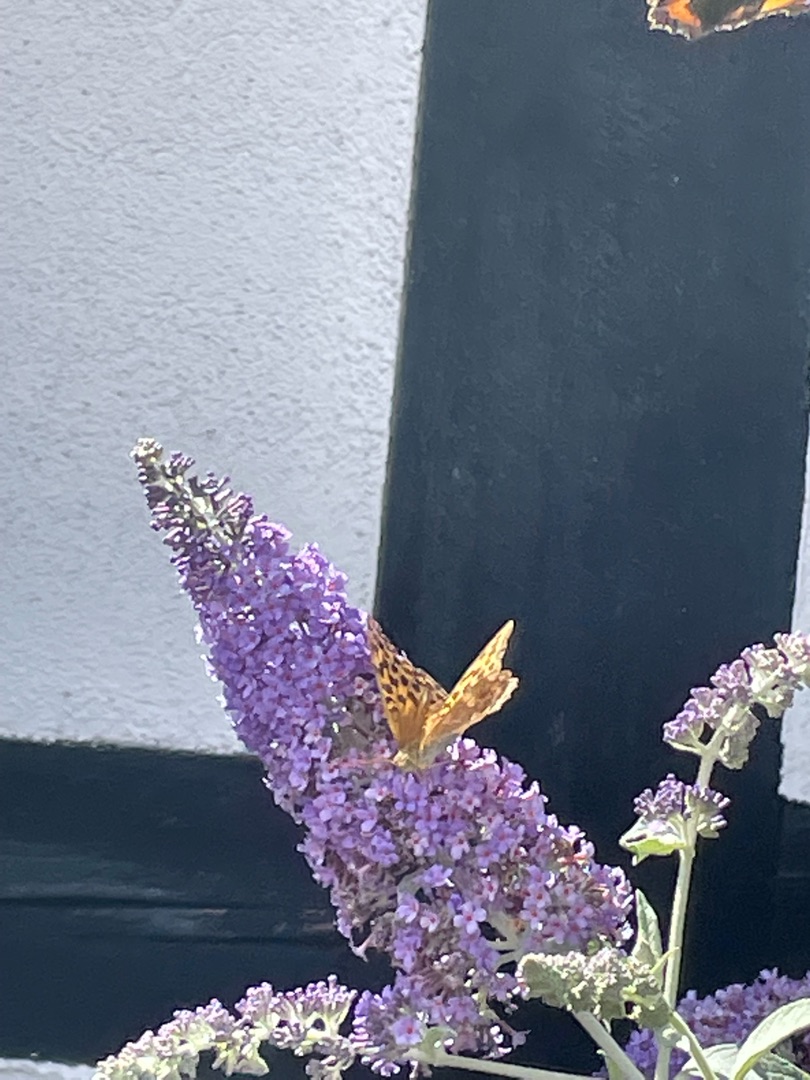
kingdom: Animalia
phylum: Arthropoda
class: Insecta
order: Lepidoptera
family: Nymphalidae
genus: Argynnis
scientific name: Argynnis paphia
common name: Kejserkåbe
